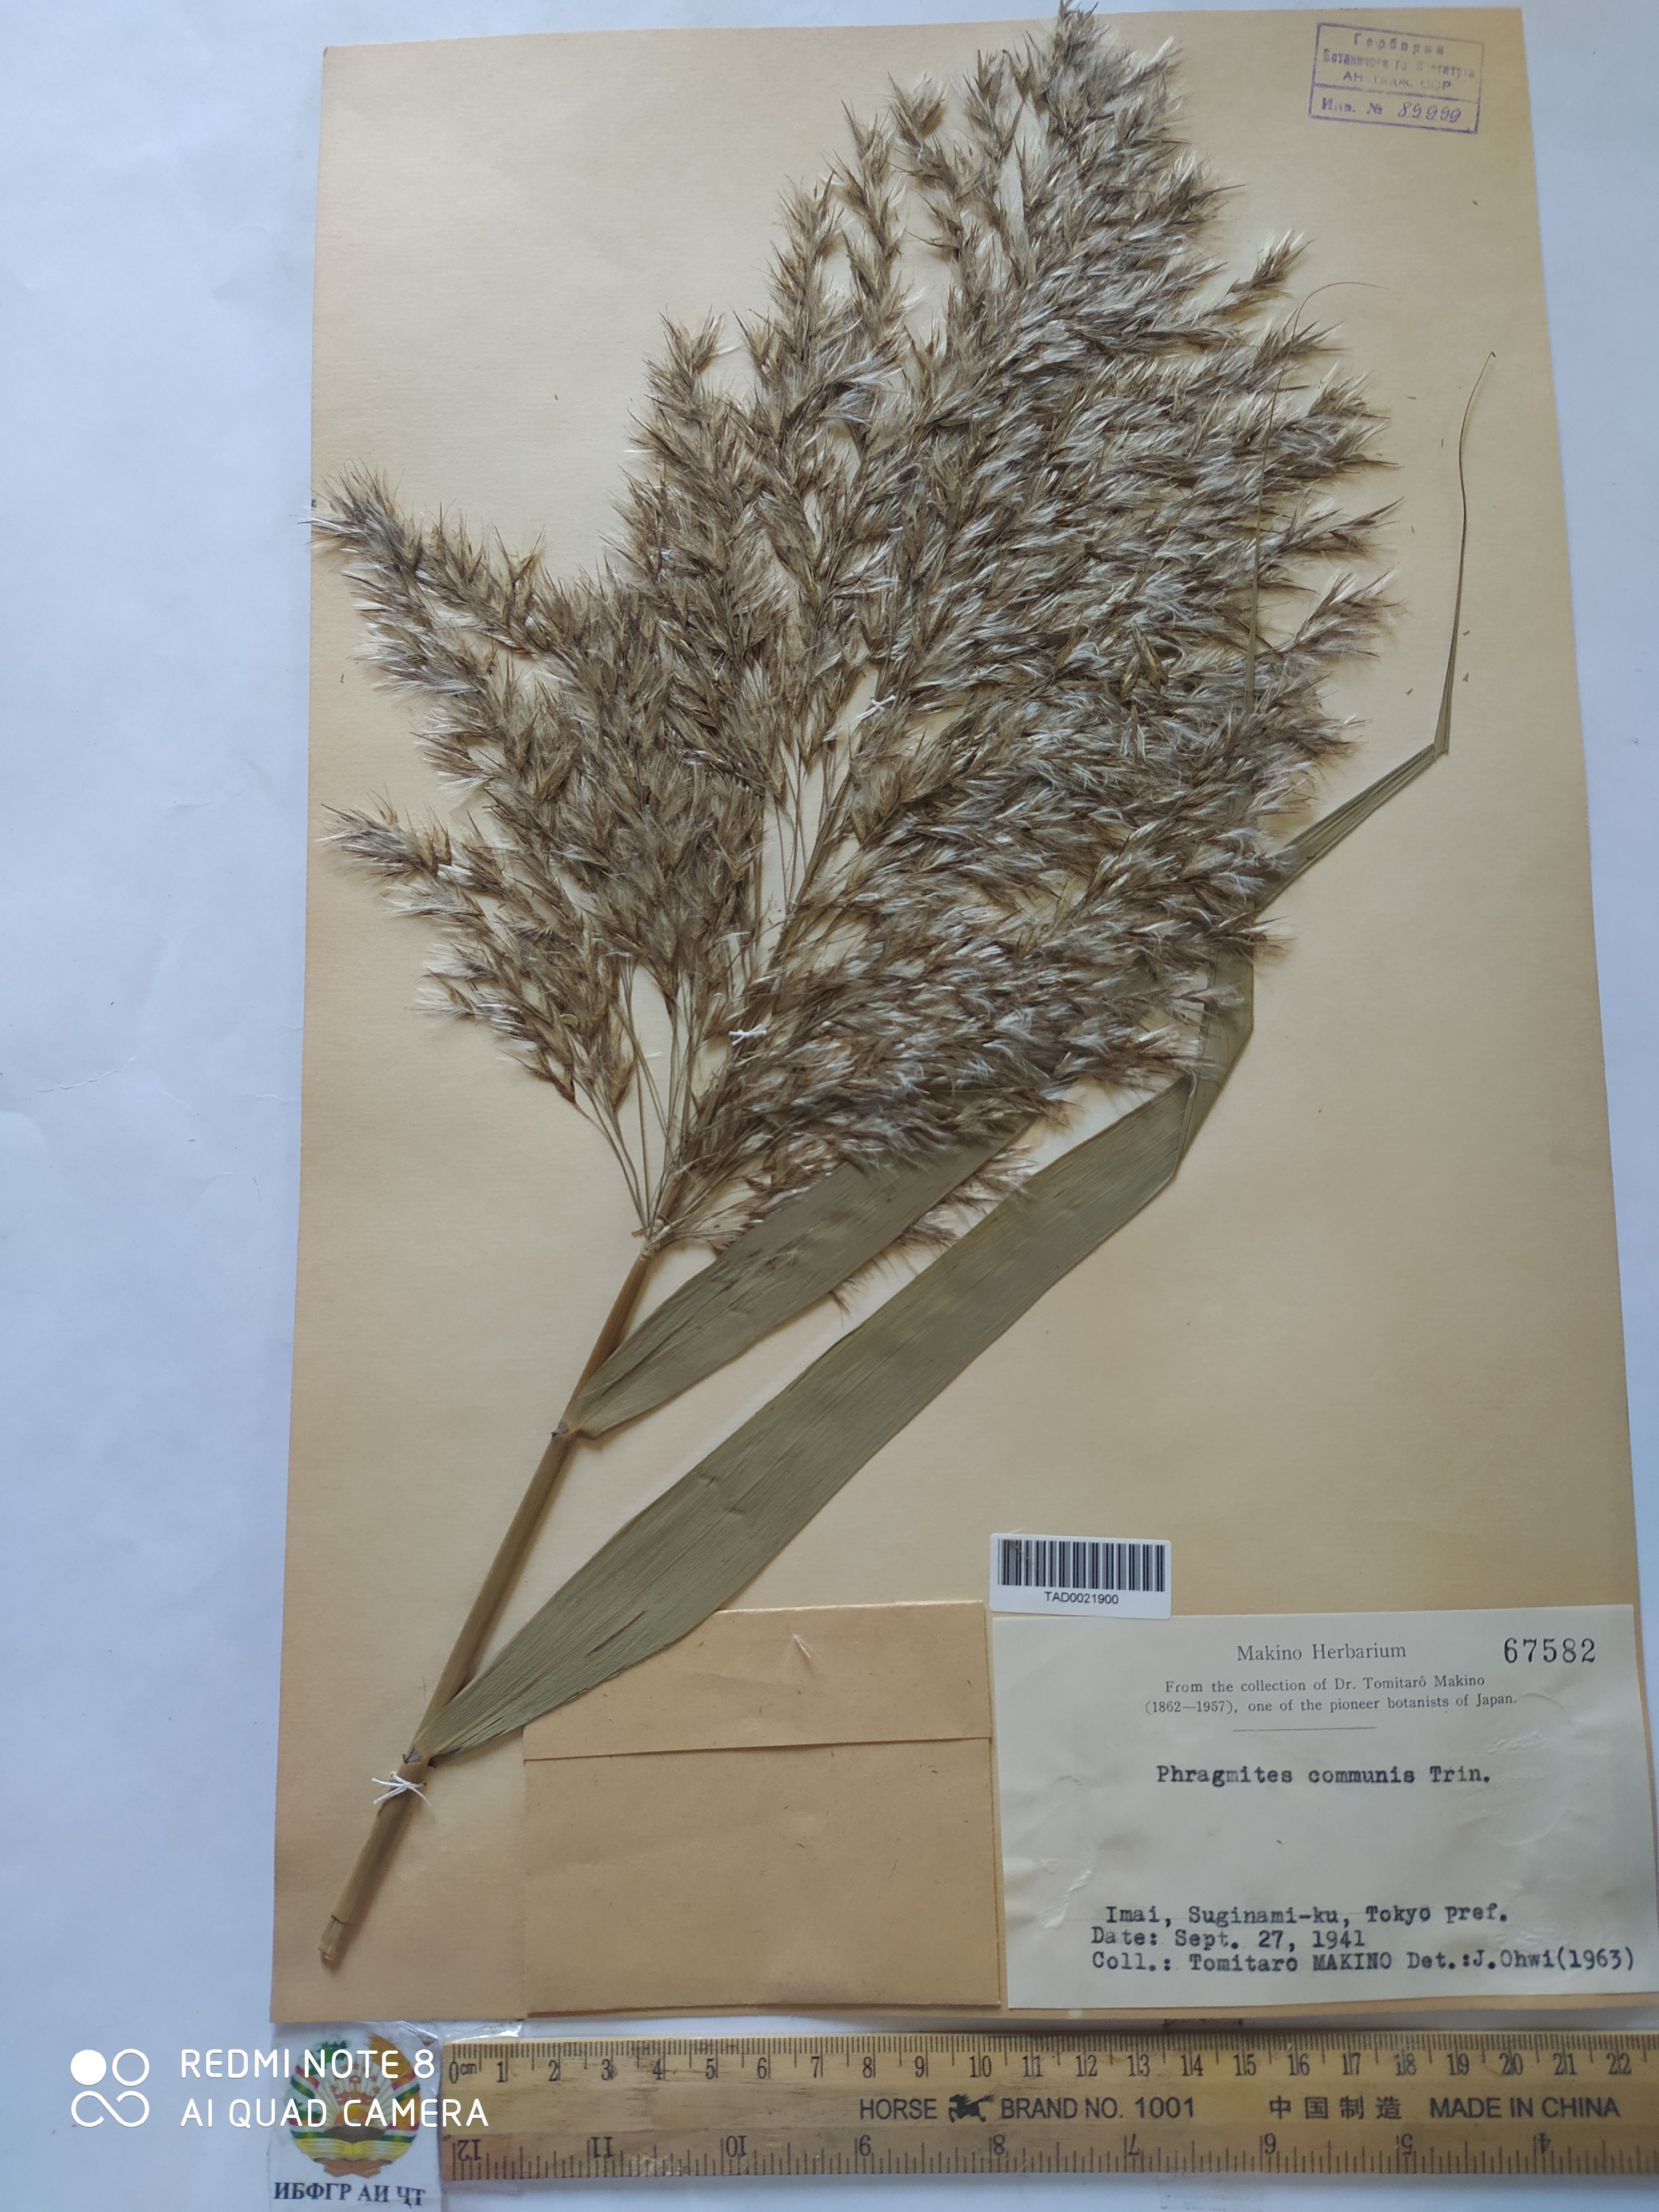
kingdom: Plantae
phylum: Tracheophyta
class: Liliopsida
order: Poales
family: Poaceae
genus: Phragmites
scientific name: Phragmites australis
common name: Common reed
